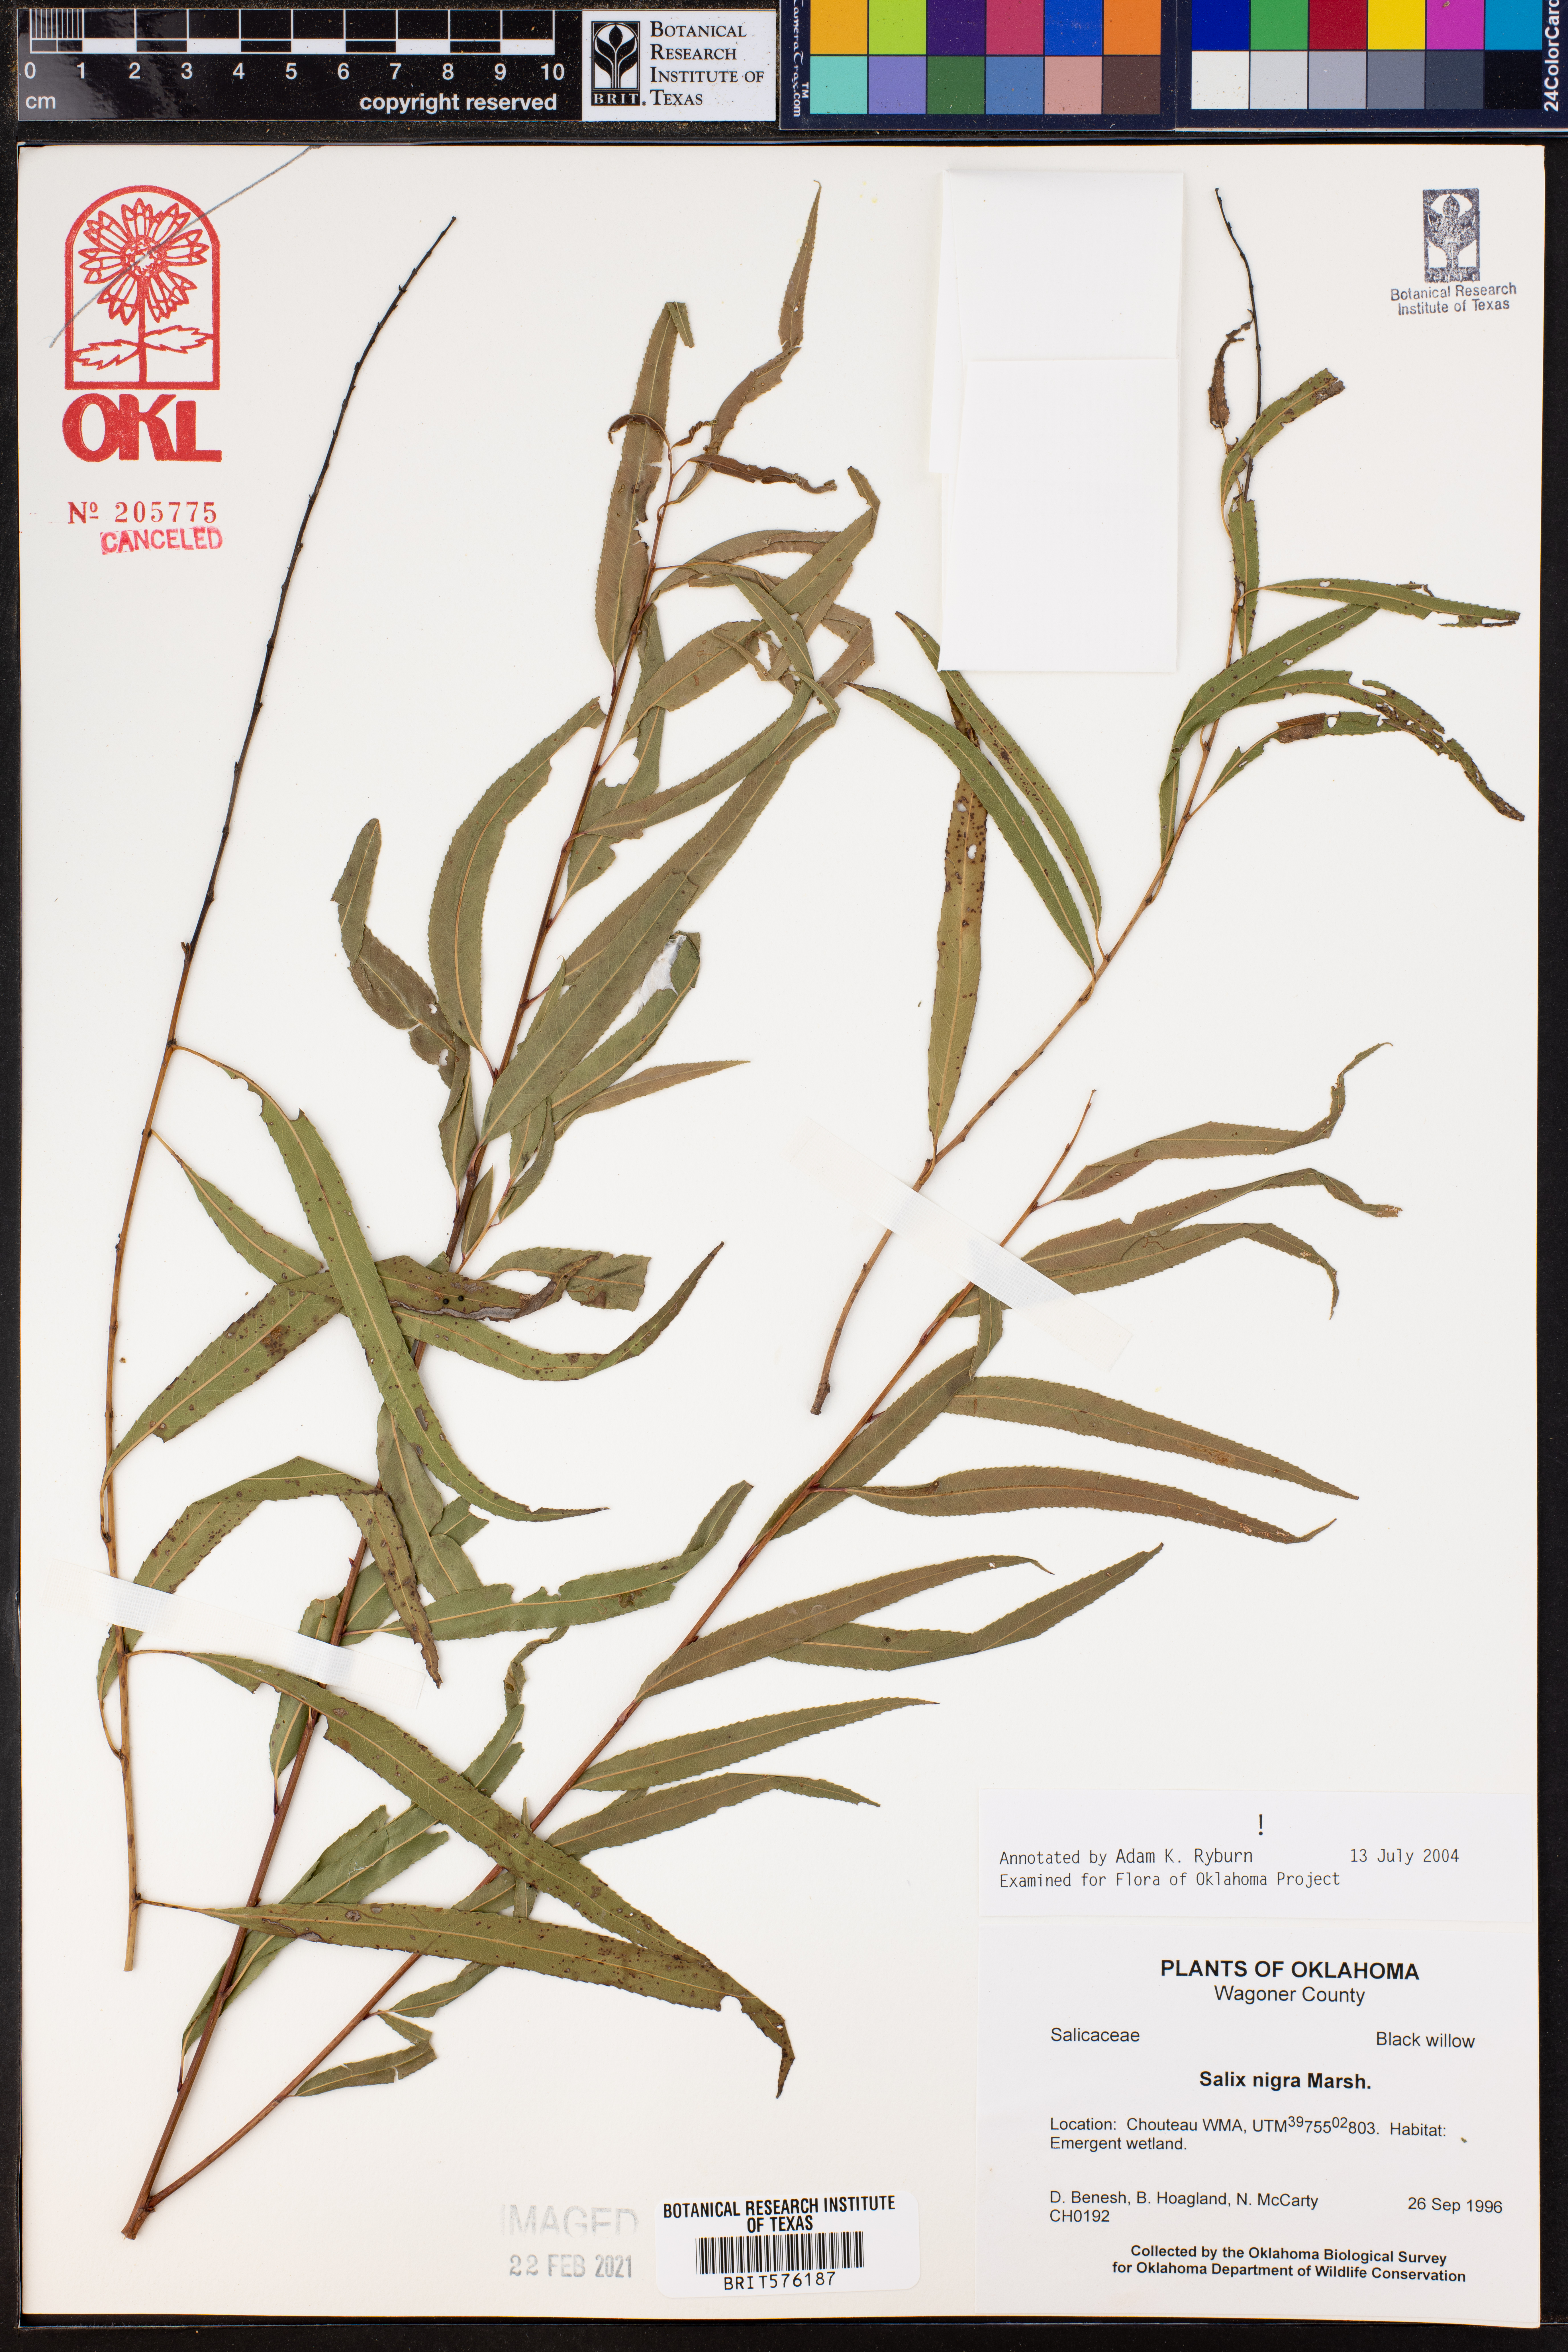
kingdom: Plantae
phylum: Tracheophyta
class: Magnoliopsida
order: Malpighiales
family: Salicaceae
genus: Salix
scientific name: Salix nigra
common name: Black willow
